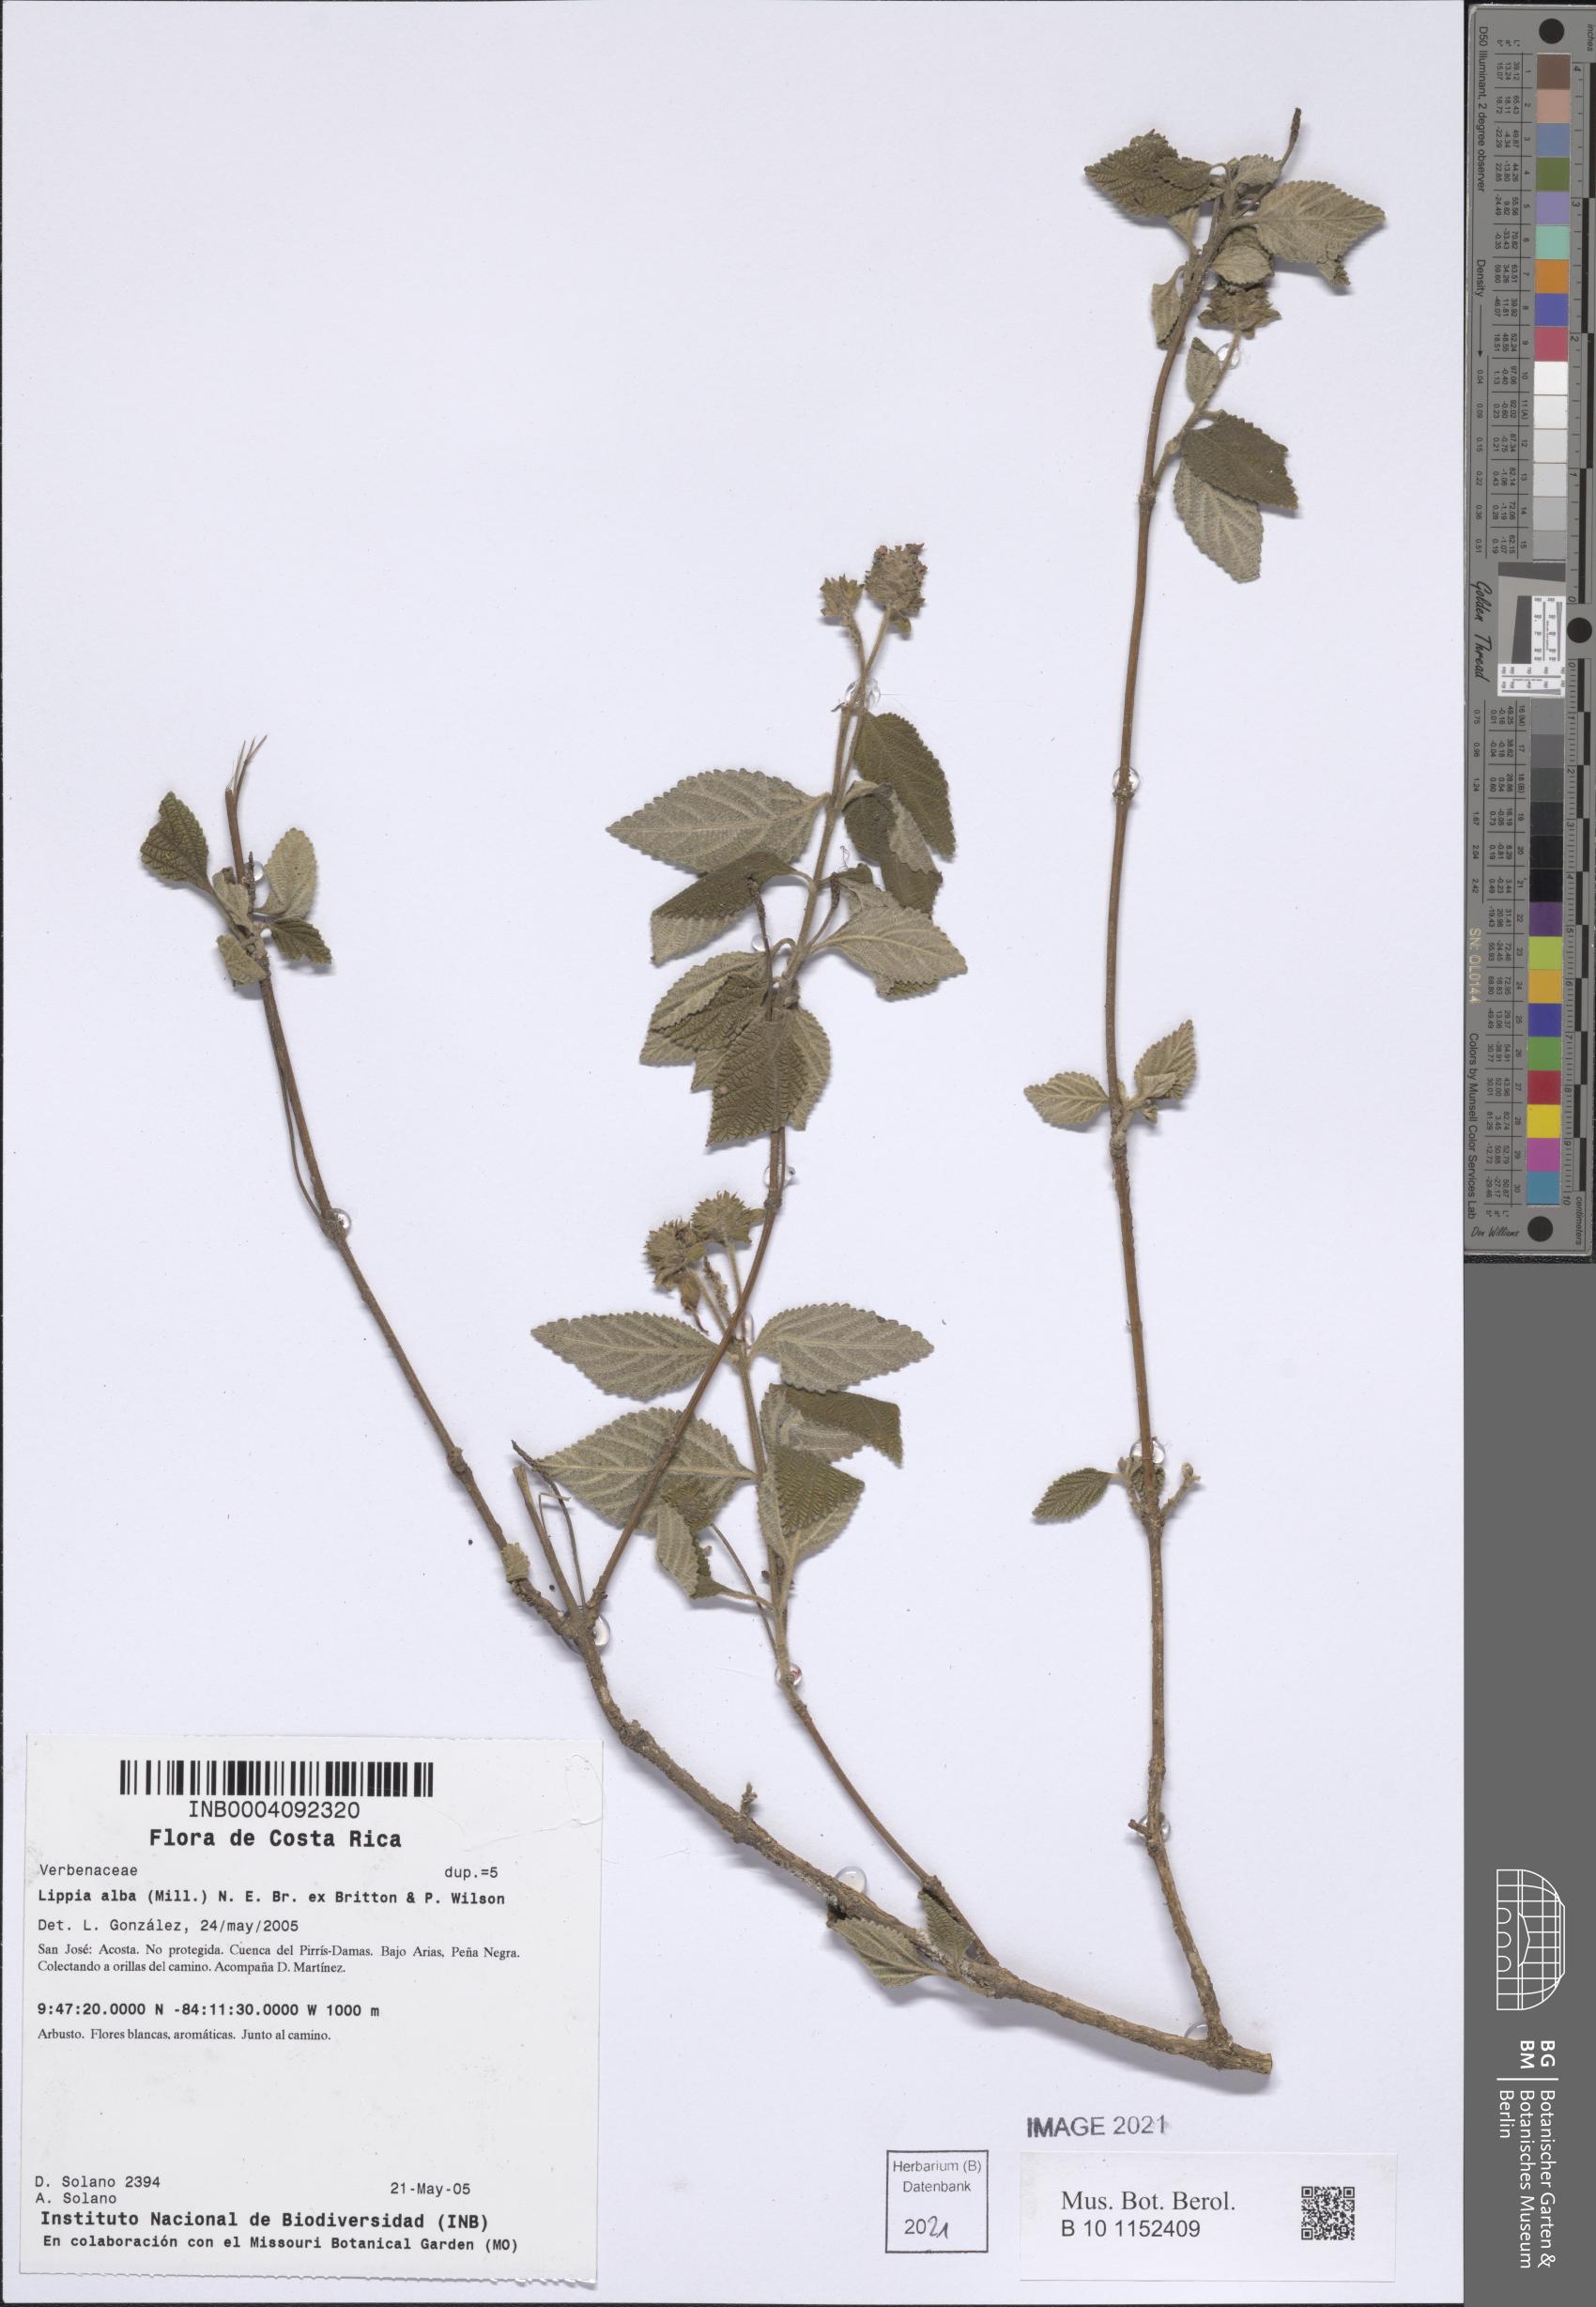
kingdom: Plantae
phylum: Tracheophyta
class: Magnoliopsida
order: Lamiales
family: Verbenaceae
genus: Lantana
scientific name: Lantana velutina
